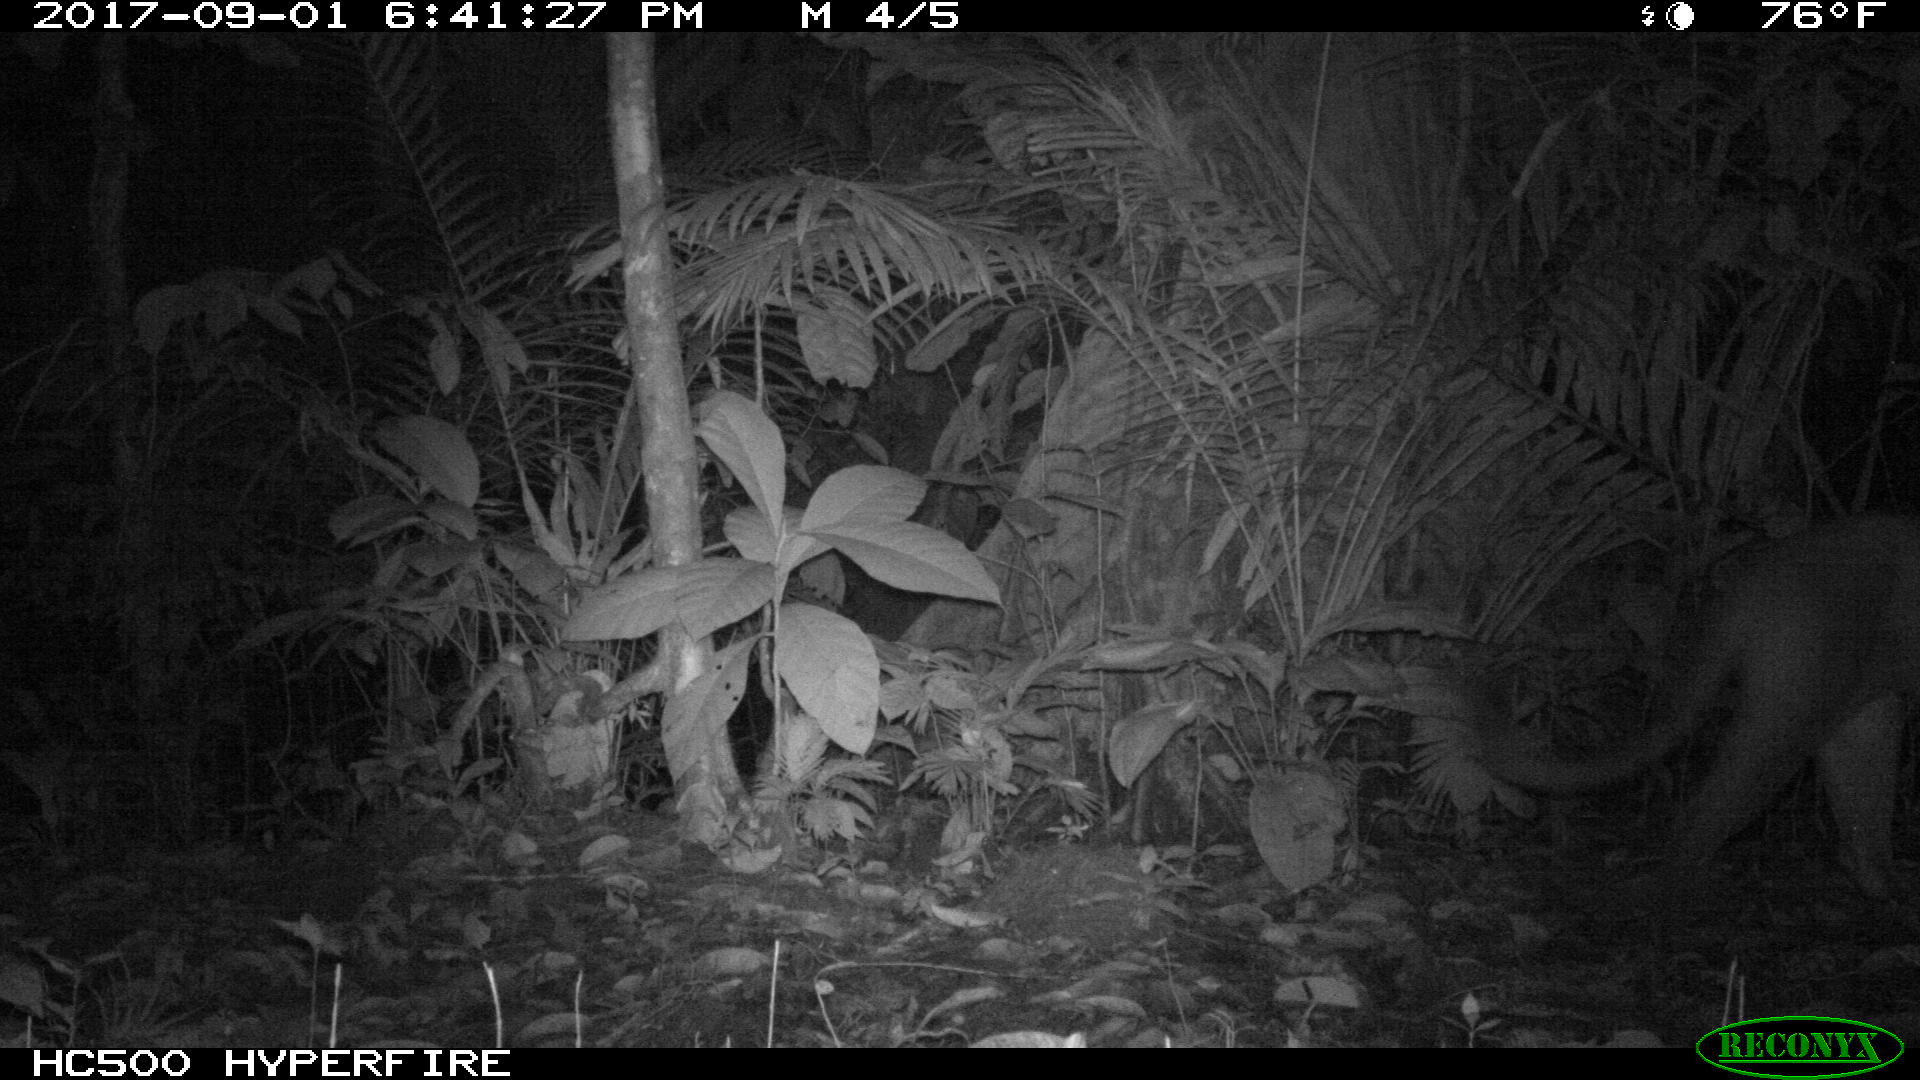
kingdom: Animalia
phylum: Chordata
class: Mammalia
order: Carnivora
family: Felidae
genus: Puma
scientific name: Puma concolor
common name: Puma
